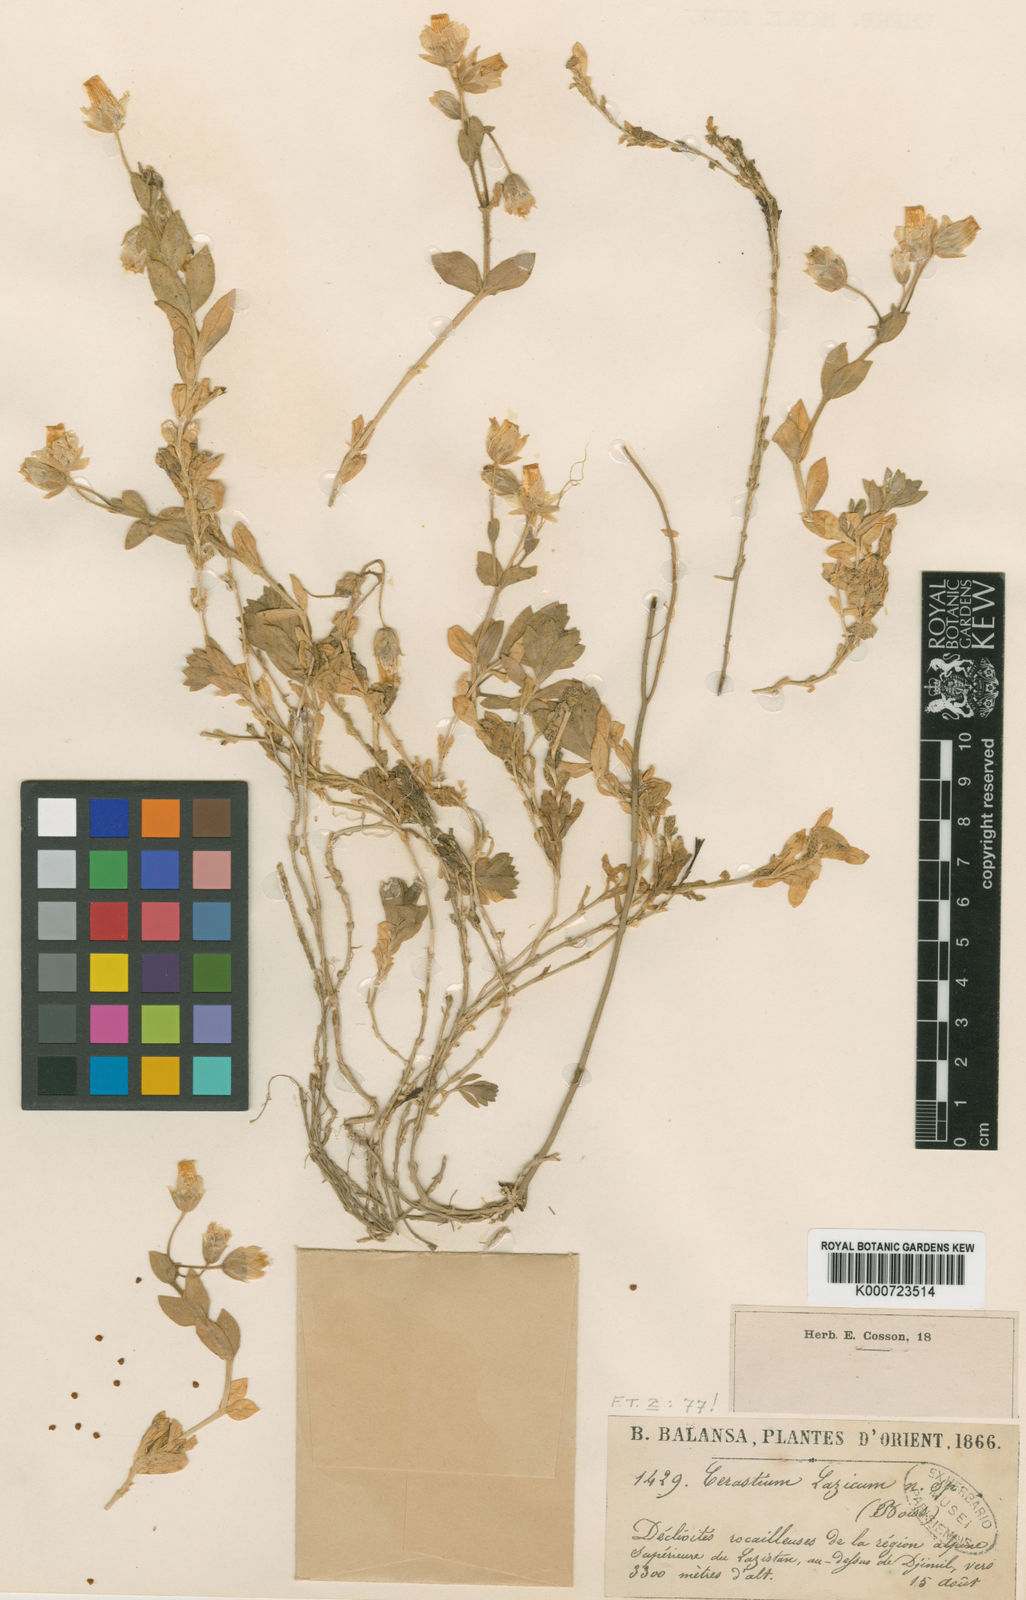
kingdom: Plantae
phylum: Tracheophyta
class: Magnoliopsida
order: Caryophyllales
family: Caryophyllaceae
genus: Cerastium
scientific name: Cerastium lazicum
